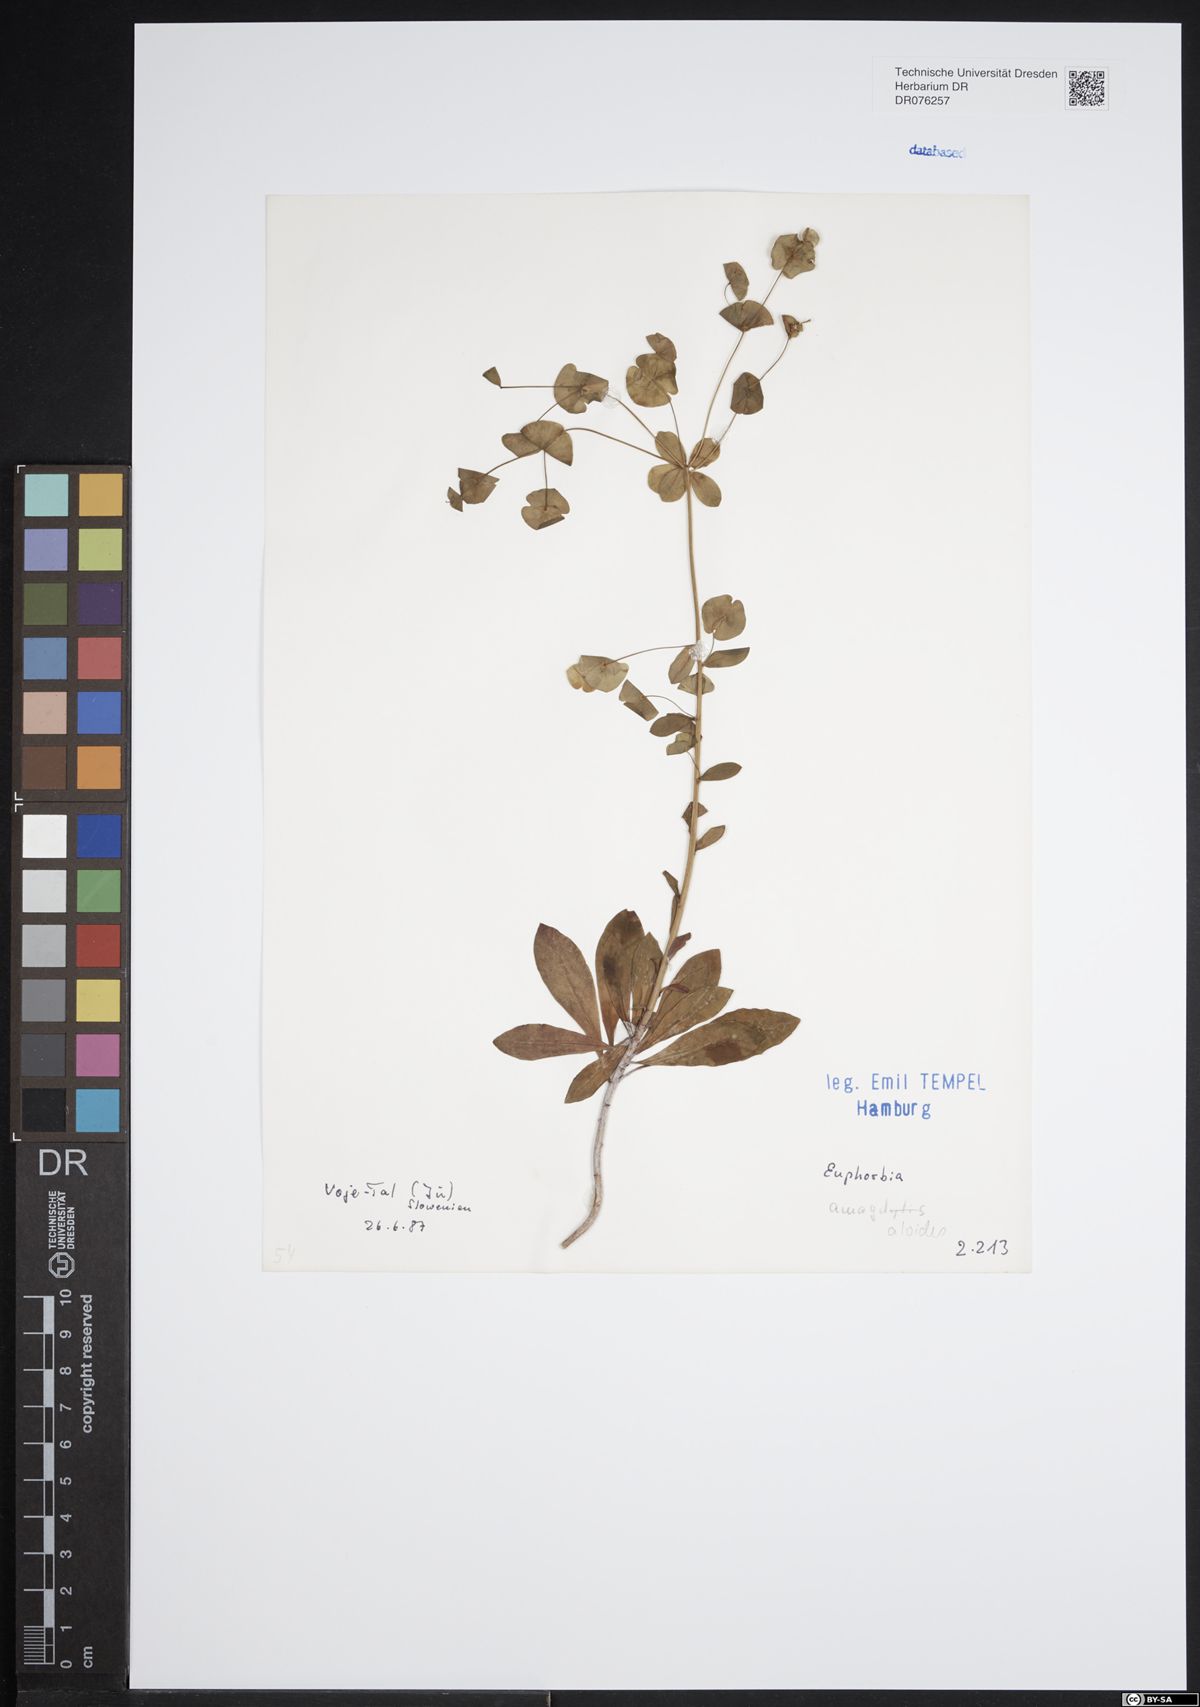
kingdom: Plantae
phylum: Tracheophyta
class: Magnoliopsida
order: Malpighiales
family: Euphorbiaceae
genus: Euphorbia
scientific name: Euphorbia amygdaloides
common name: Wood spurge
